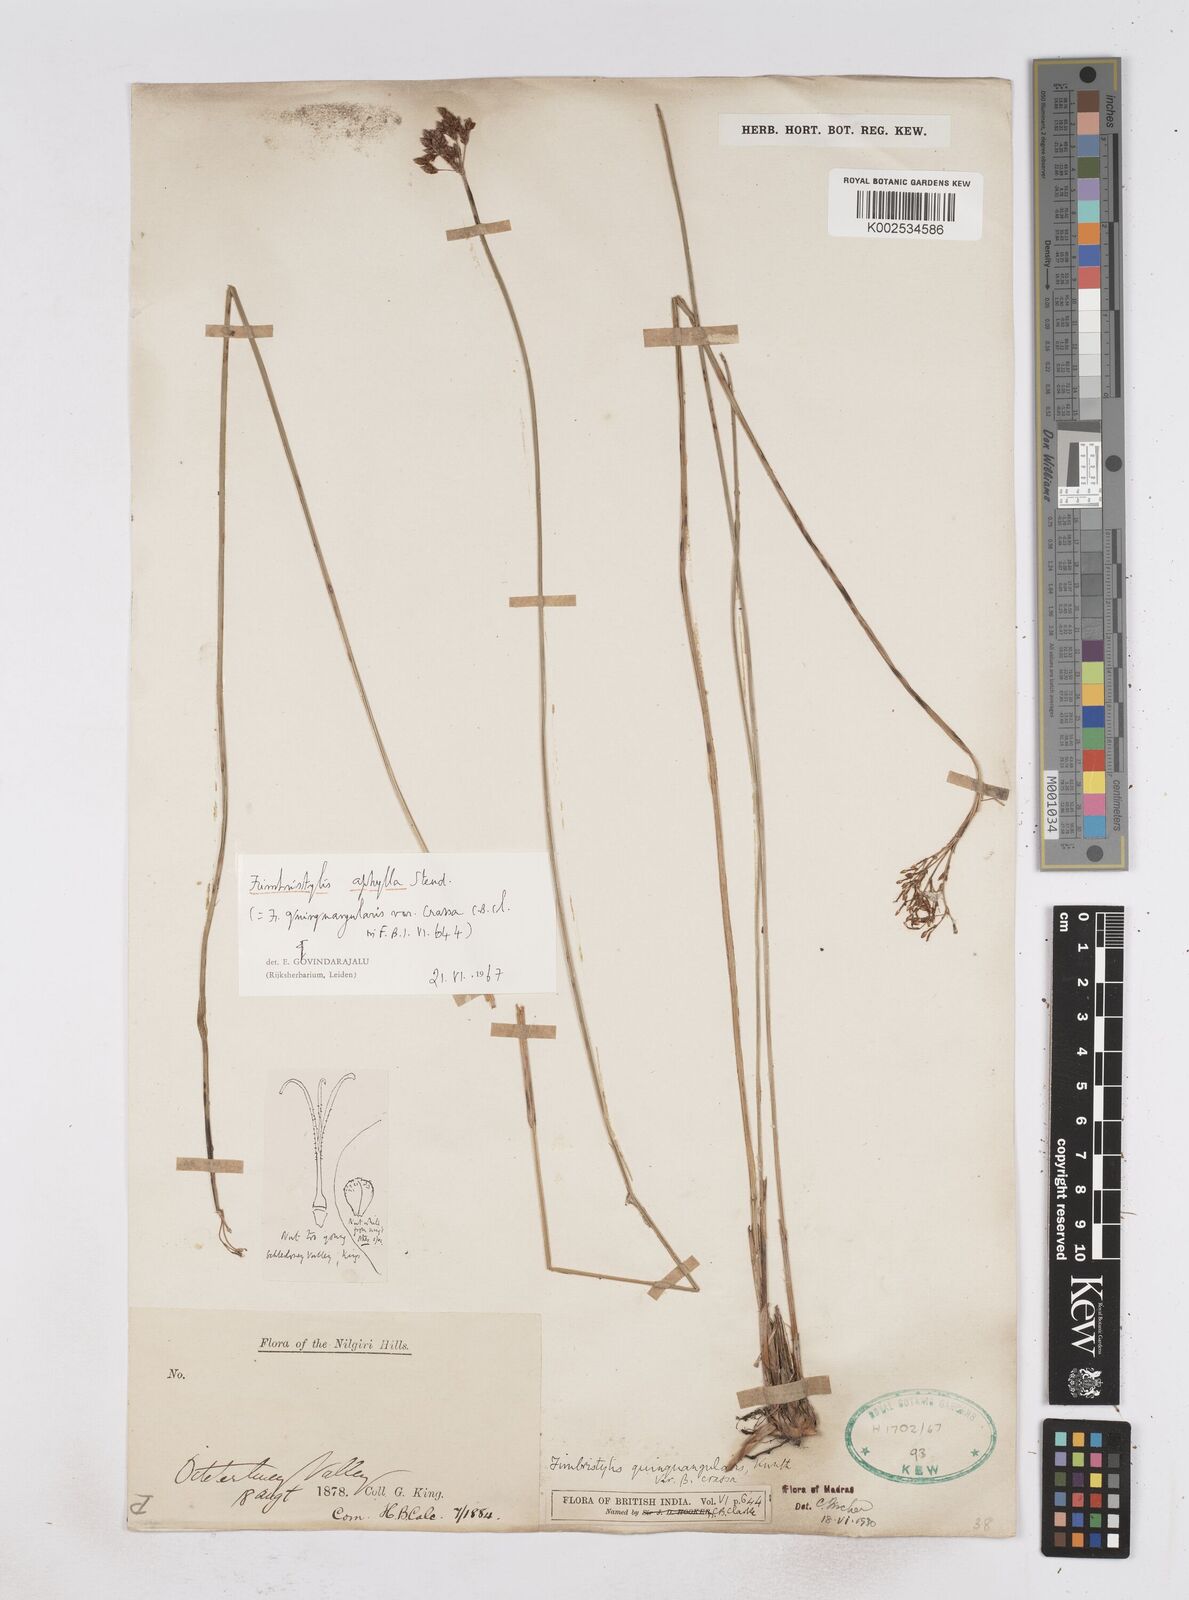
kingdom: Plantae
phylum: Tracheophyta
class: Liliopsida
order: Poales
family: Cyperaceae
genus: Fimbristylis
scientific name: Fimbristylis aphylla
